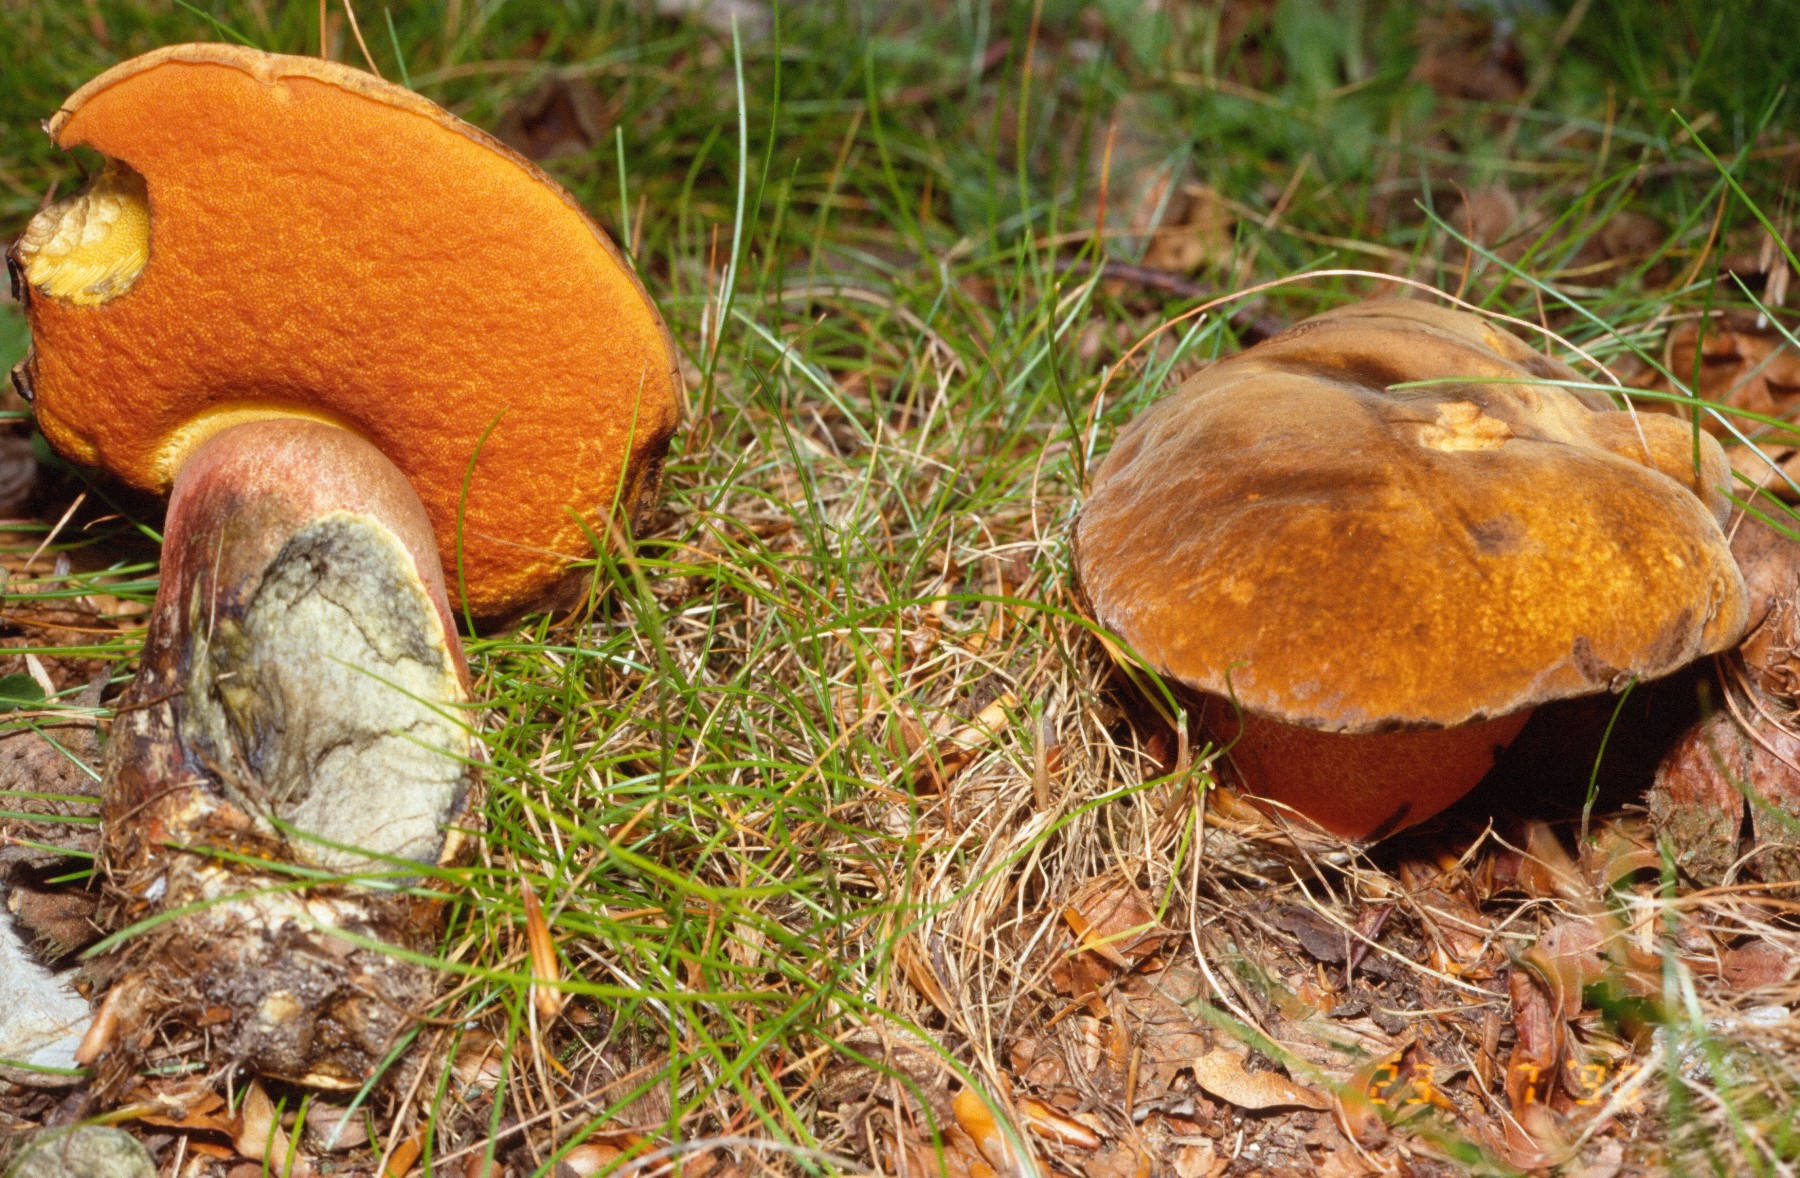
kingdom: Fungi
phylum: Basidiomycota
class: Agaricomycetes
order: Boletales
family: Boletaceae
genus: Neoboletus
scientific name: Neoboletus erythropus
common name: punktstokket indigorørhat
